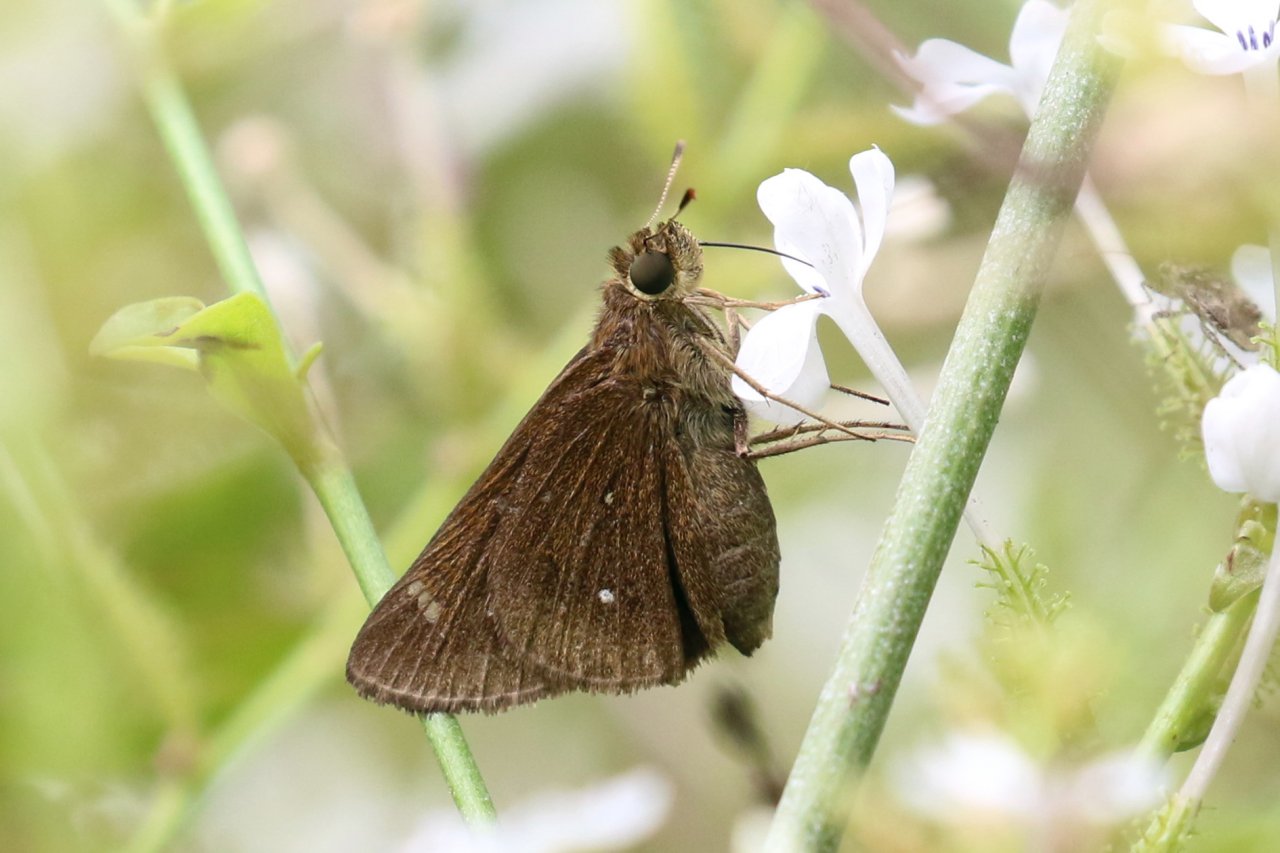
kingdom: Animalia
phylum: Arthropoda
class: Insecta
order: Lepidoptera
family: Hesperiidae
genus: Decinea
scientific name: Decinea percosius
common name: Double-dotted Skipper
